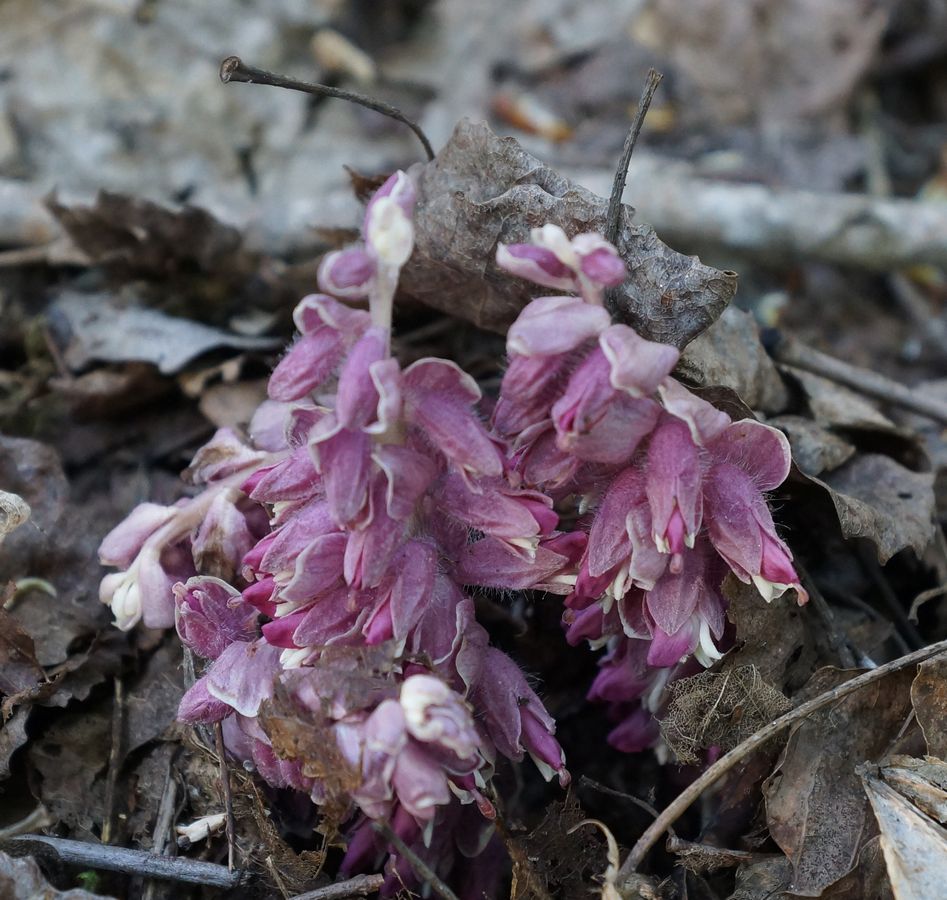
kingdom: Plantae
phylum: Tracheophyta
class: Magnoliopsida
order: Lamiales
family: Orobanchaceae
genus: Lathraea
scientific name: Lathraea squamaria
